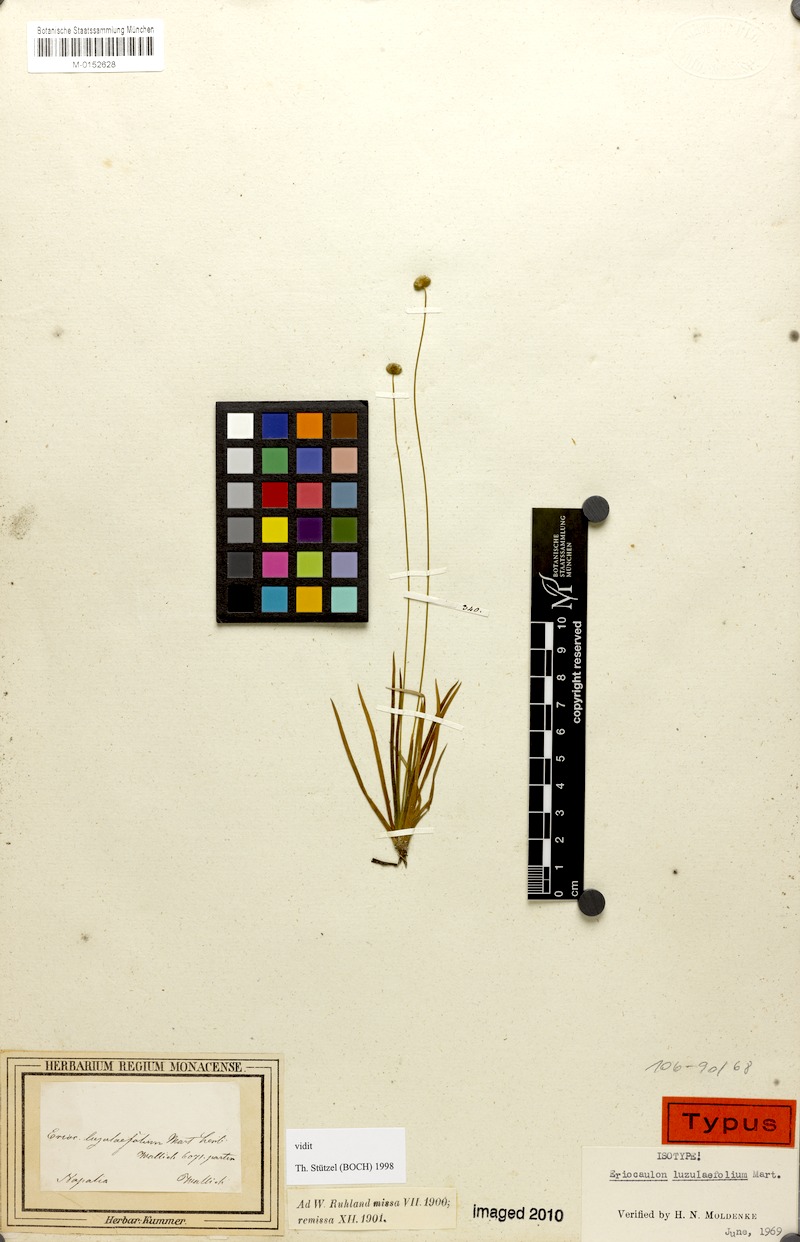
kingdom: Plantae
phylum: Tracheophyta
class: Liliopsida
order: Poales
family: Eriocaulaceae
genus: Eriocaulon
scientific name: Eriocaulon nepalense
